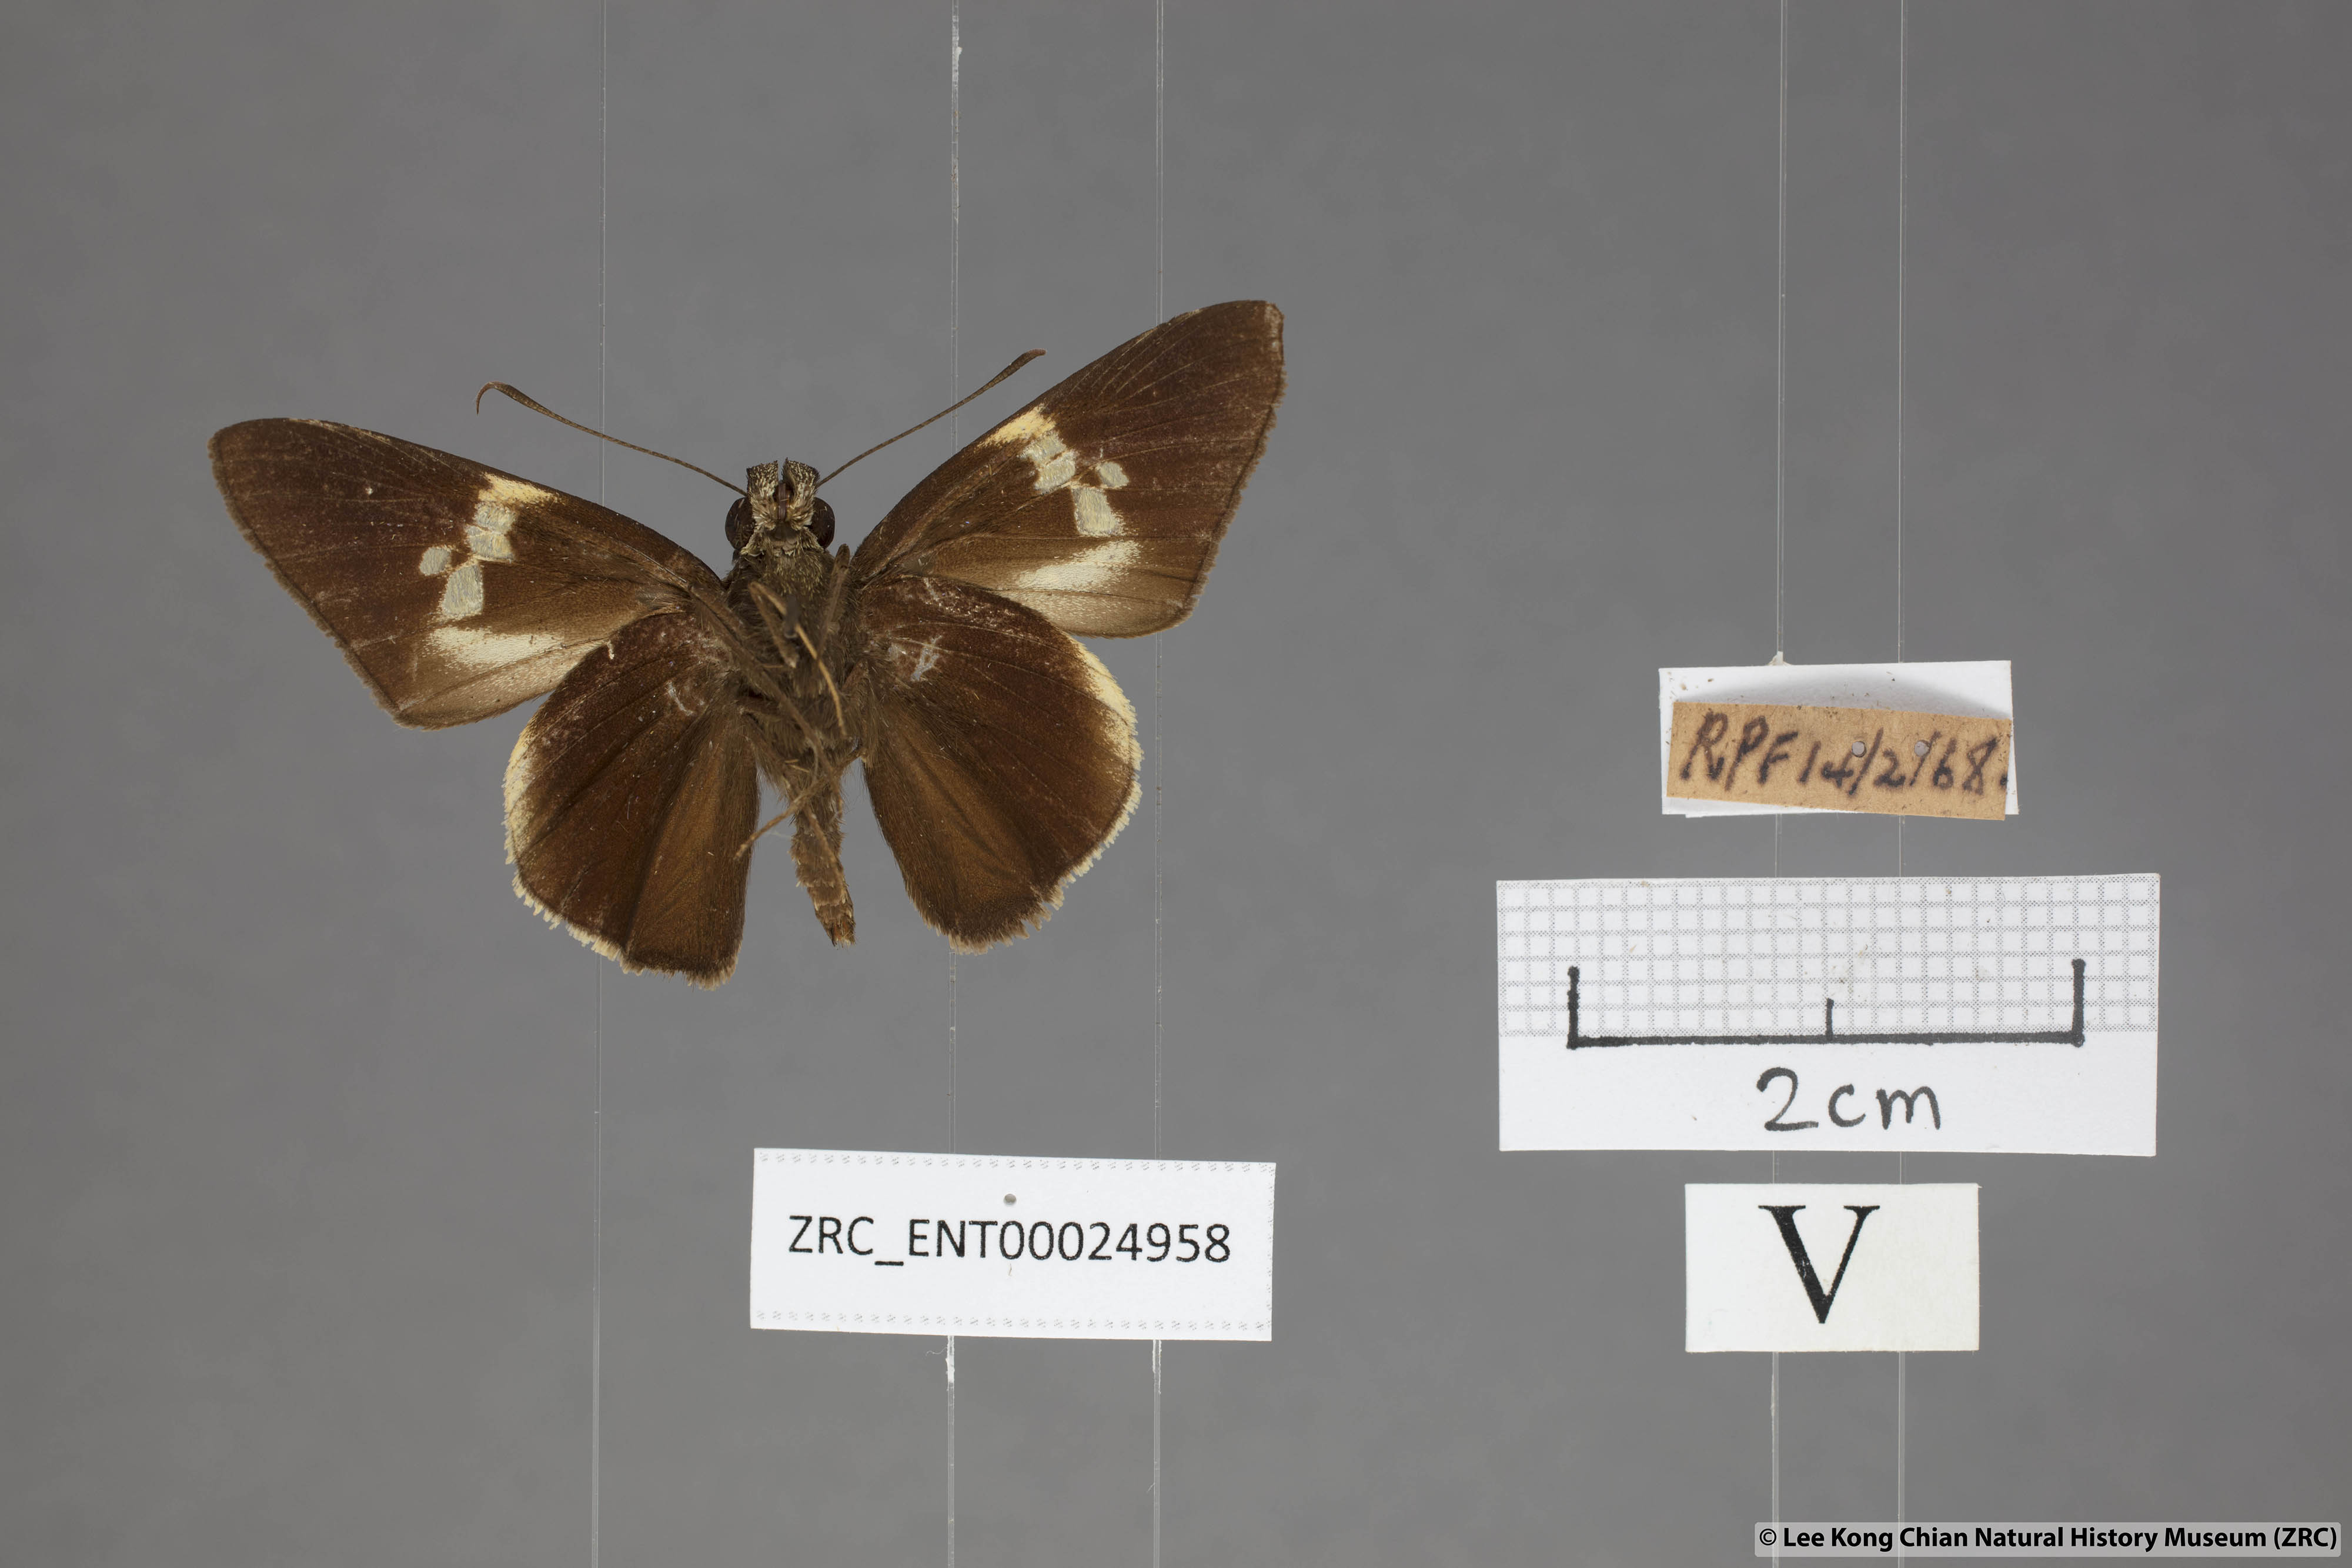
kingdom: Animalia
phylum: Arthropoda
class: Insecta
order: Lepidoptera
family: Hesperiidae
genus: Lotongus
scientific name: Lotongus calathus
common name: White-tipped palmer
